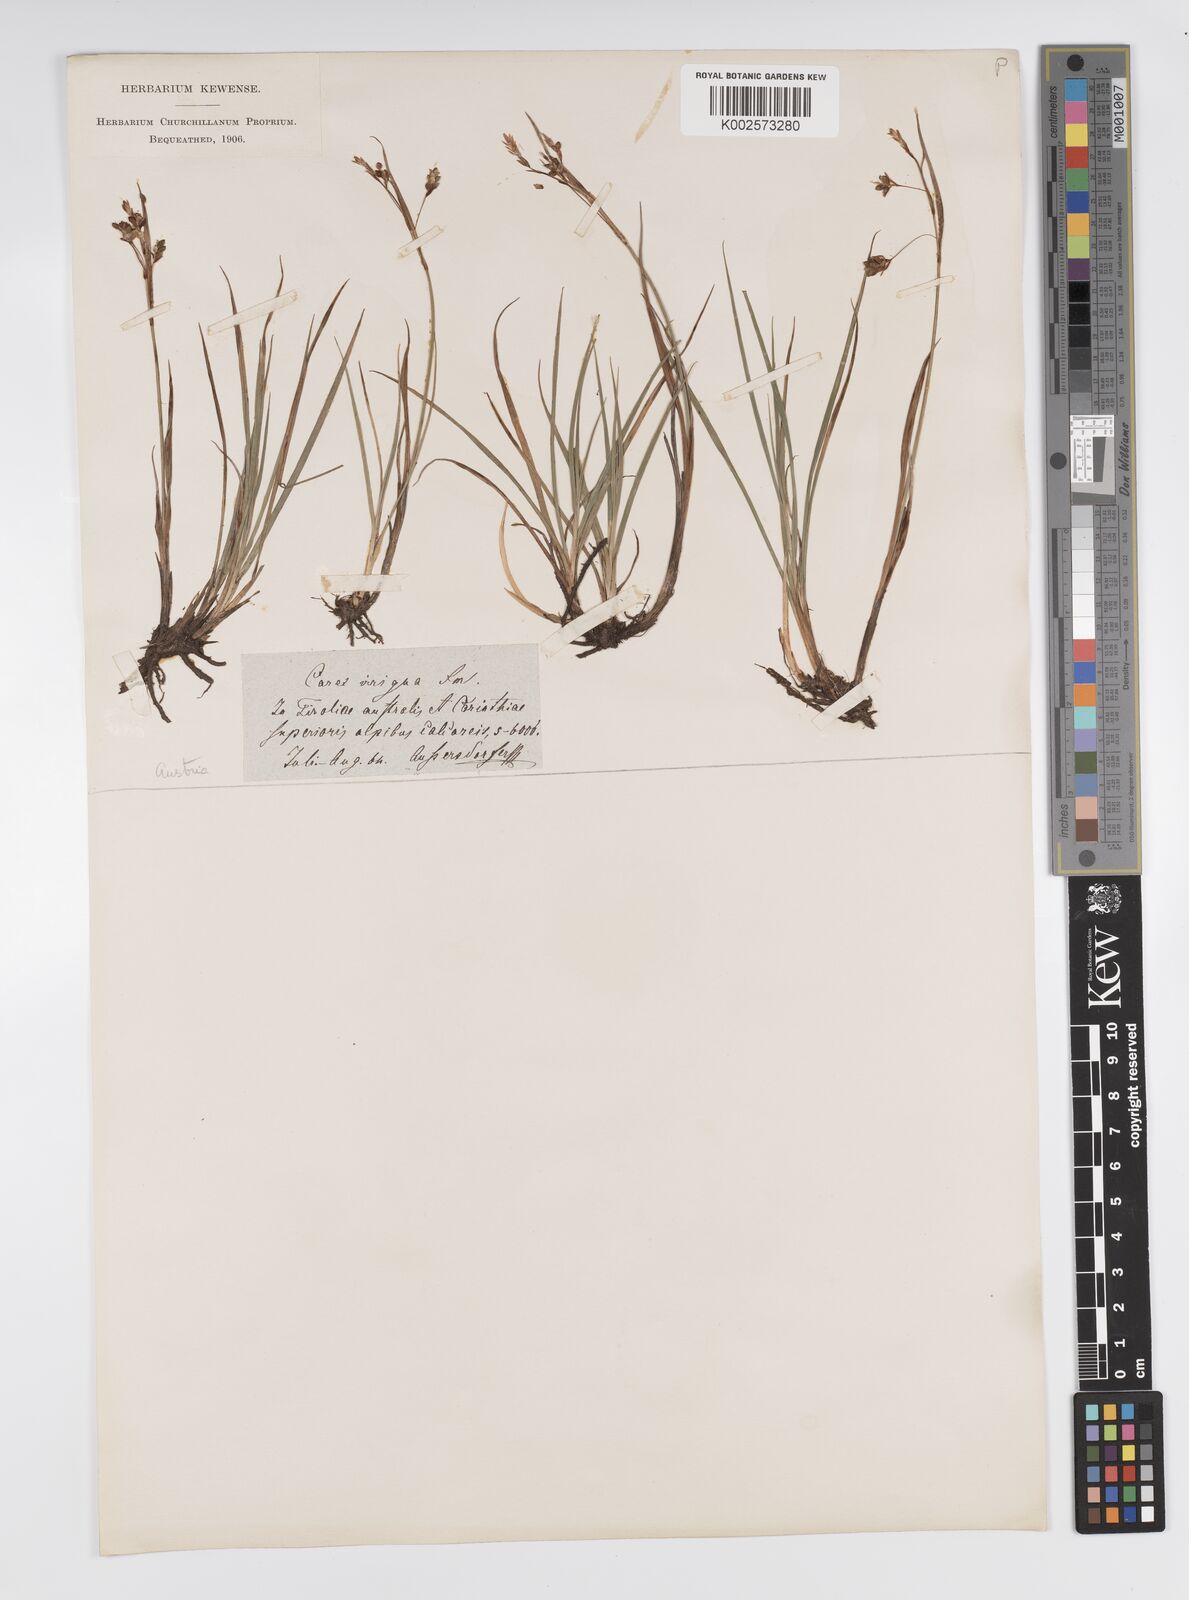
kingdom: Plantae
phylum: Tracheophyta
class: Liliopsida
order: Poales
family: Cyperaceae
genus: Carex
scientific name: Carex magellanica
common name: Bog sedge
